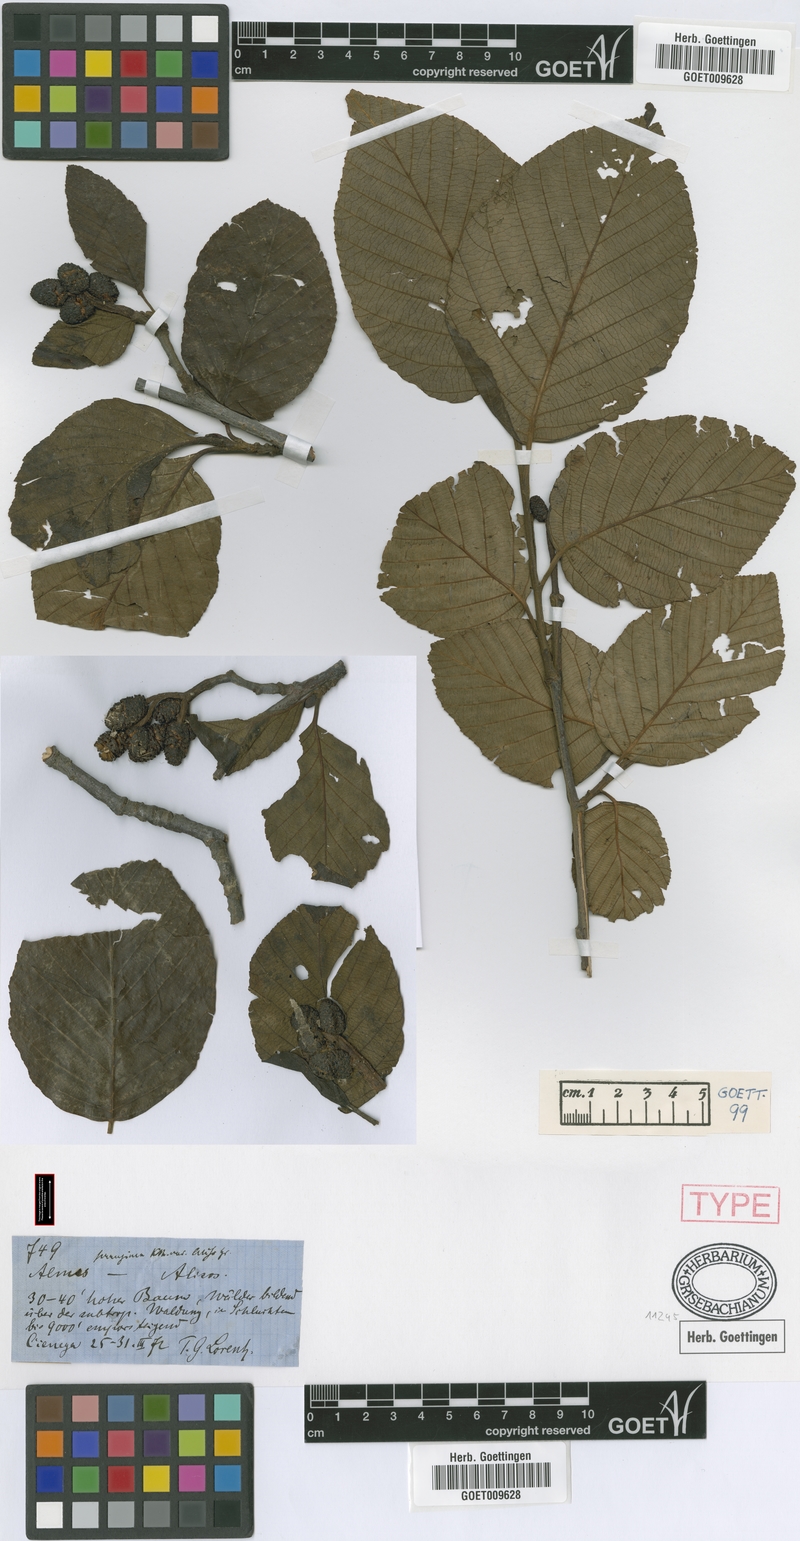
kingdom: Plantae
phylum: Tracheophyta
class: Magnoliopsida
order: Fagales
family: Betulaceae
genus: Alnus
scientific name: Alnus acuminata
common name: Alder
